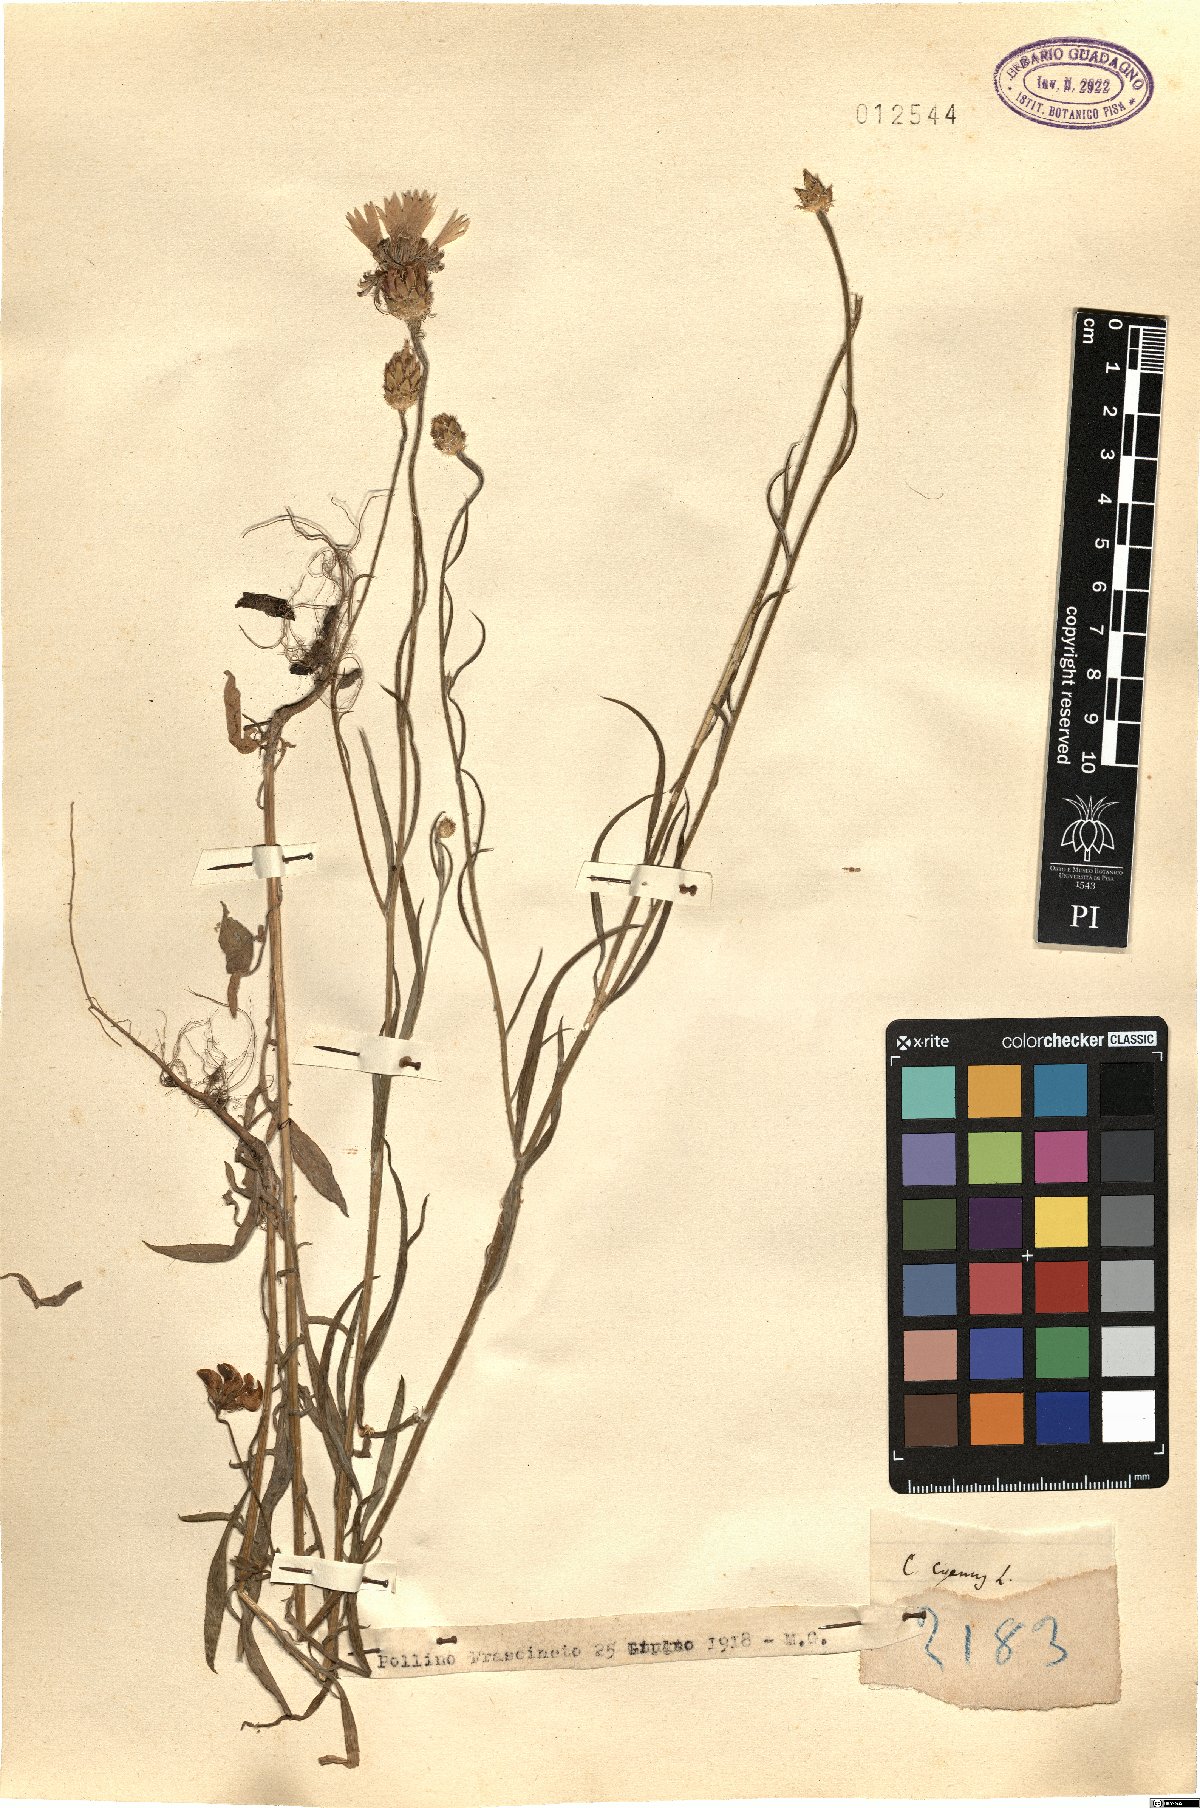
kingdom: Plantae
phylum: Tracheophyta
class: Magnoliopsida
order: Asterales
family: Asteraceae
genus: Centaurea
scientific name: Centaurea cyanus
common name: Cornflower
